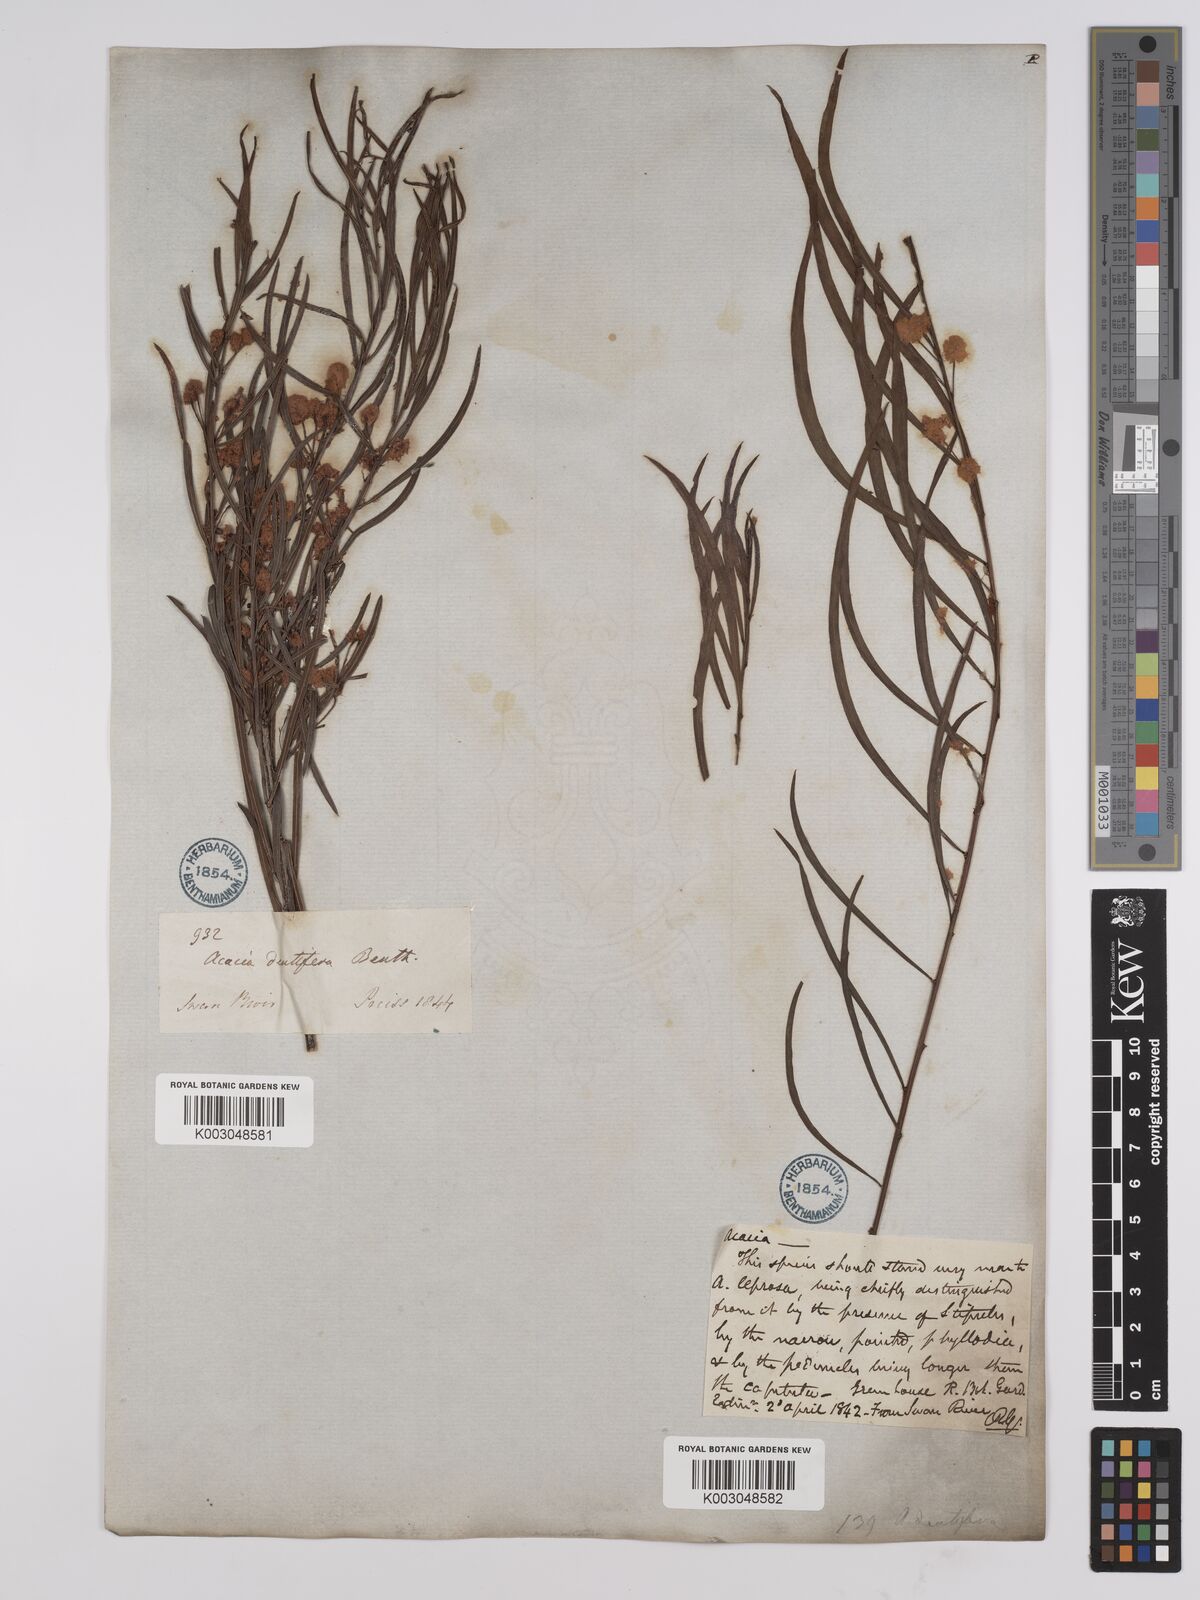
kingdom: Plantae
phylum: Tracheophyta
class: Magnoliopsida
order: Fabales
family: Fabaceae
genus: Acacia
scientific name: Acacia dentifera
